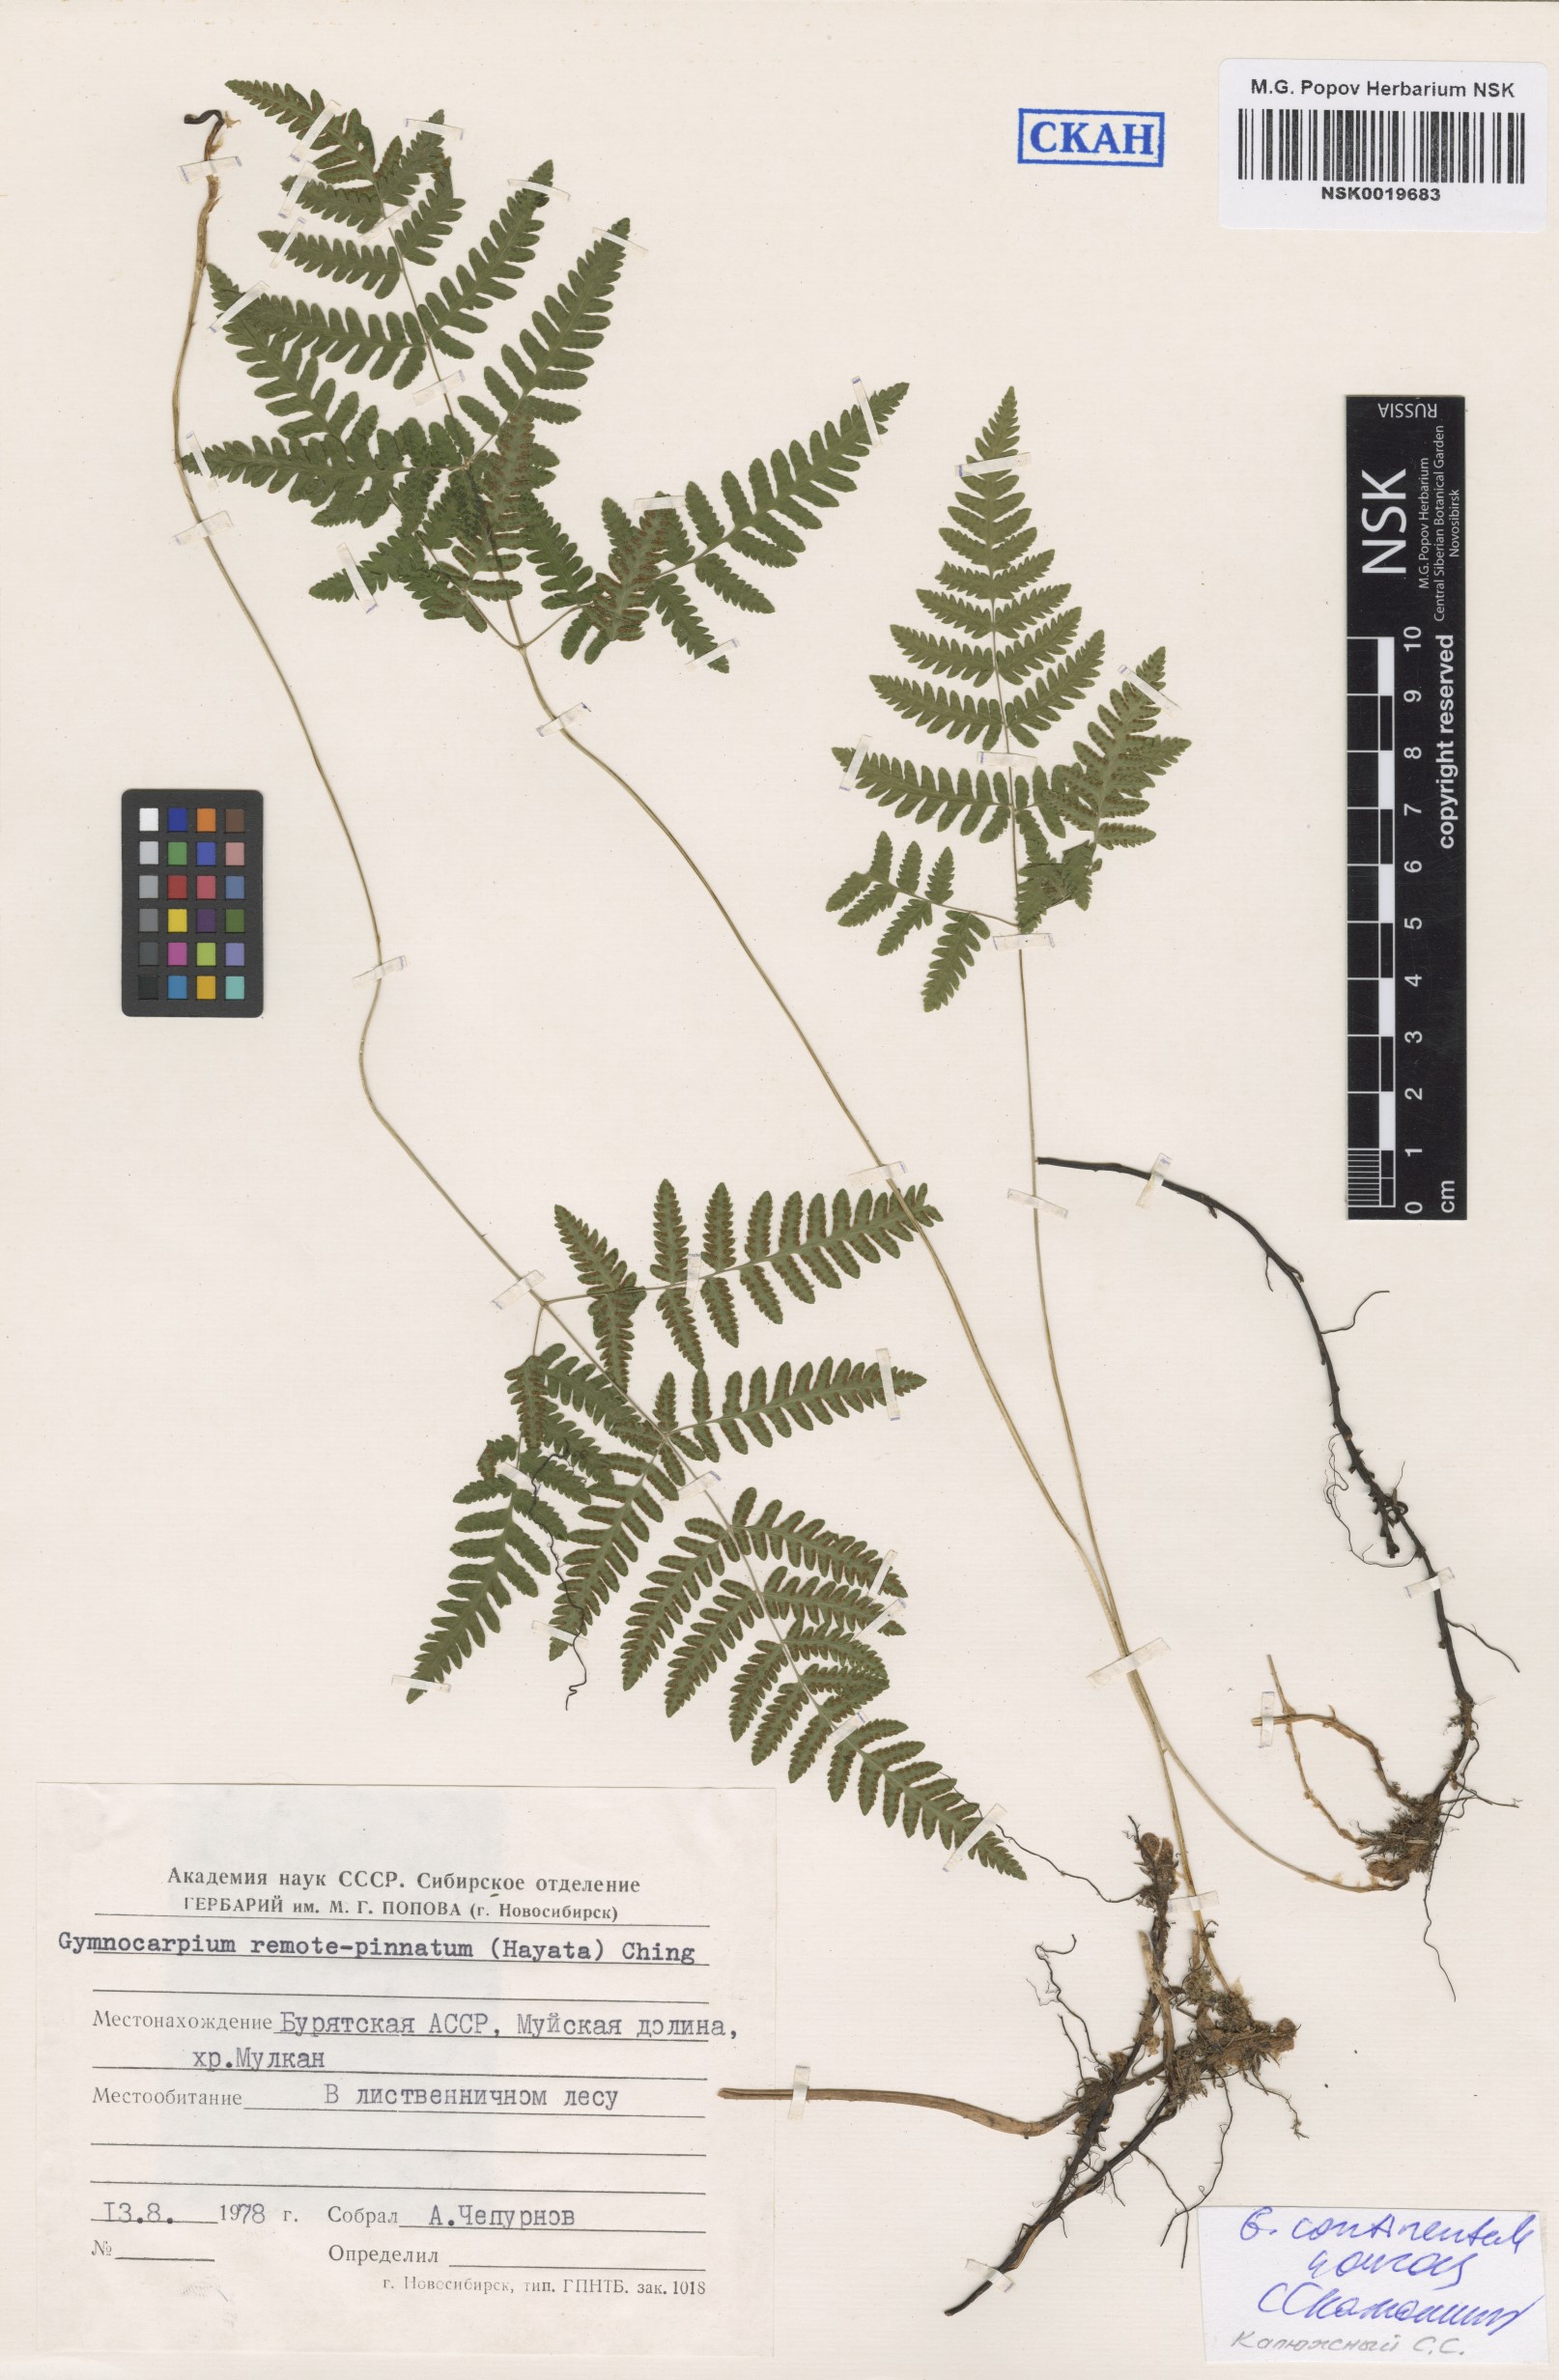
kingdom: Plantae
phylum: Tracheophyta
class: Polypodiopsida
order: Polypodiales
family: Cystopteridaceae
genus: Gymnocarpium
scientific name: Gymnocarpium continentale
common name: Asian oak fern
